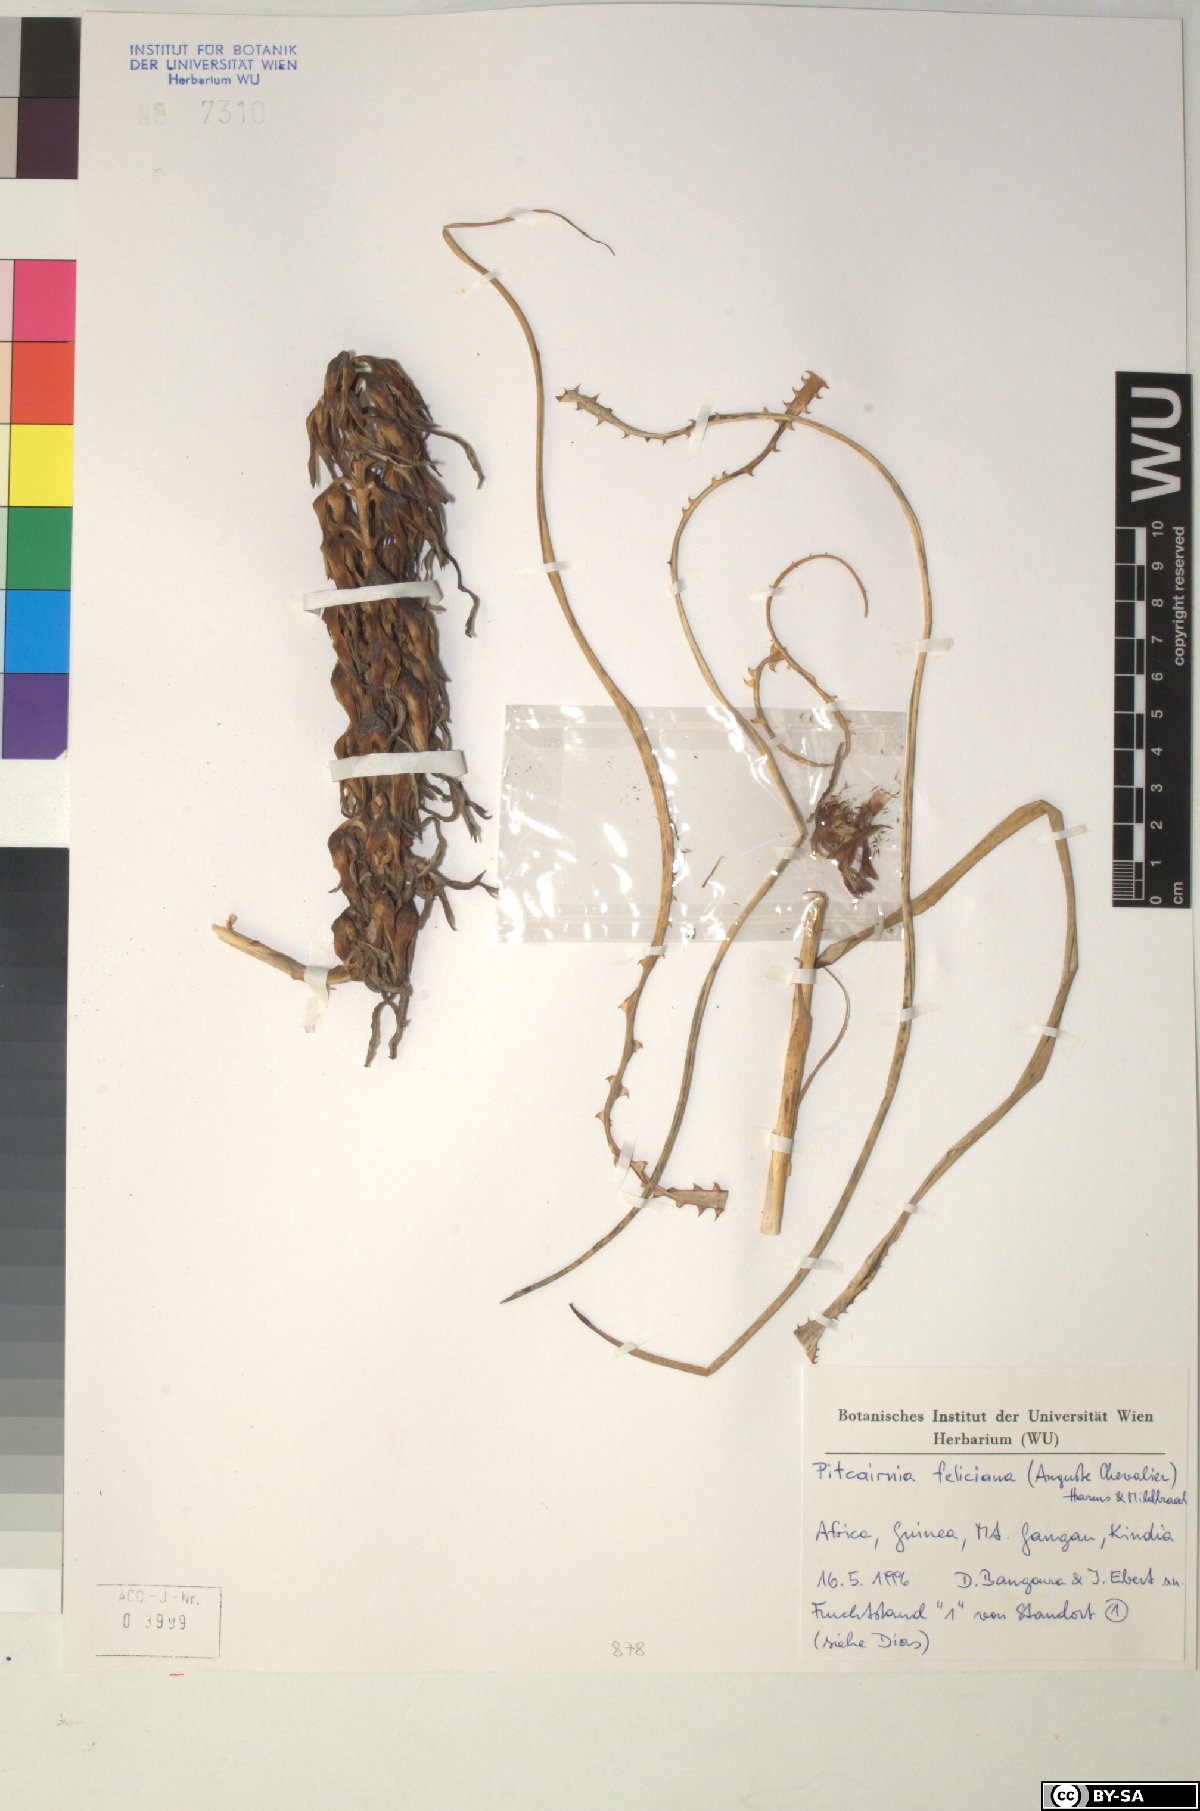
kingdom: Plantae
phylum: Tracheophyta
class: Liliopsida
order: Poales
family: Bromeliaceae
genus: Pitcairnia
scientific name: Pitcairnia feliciana
